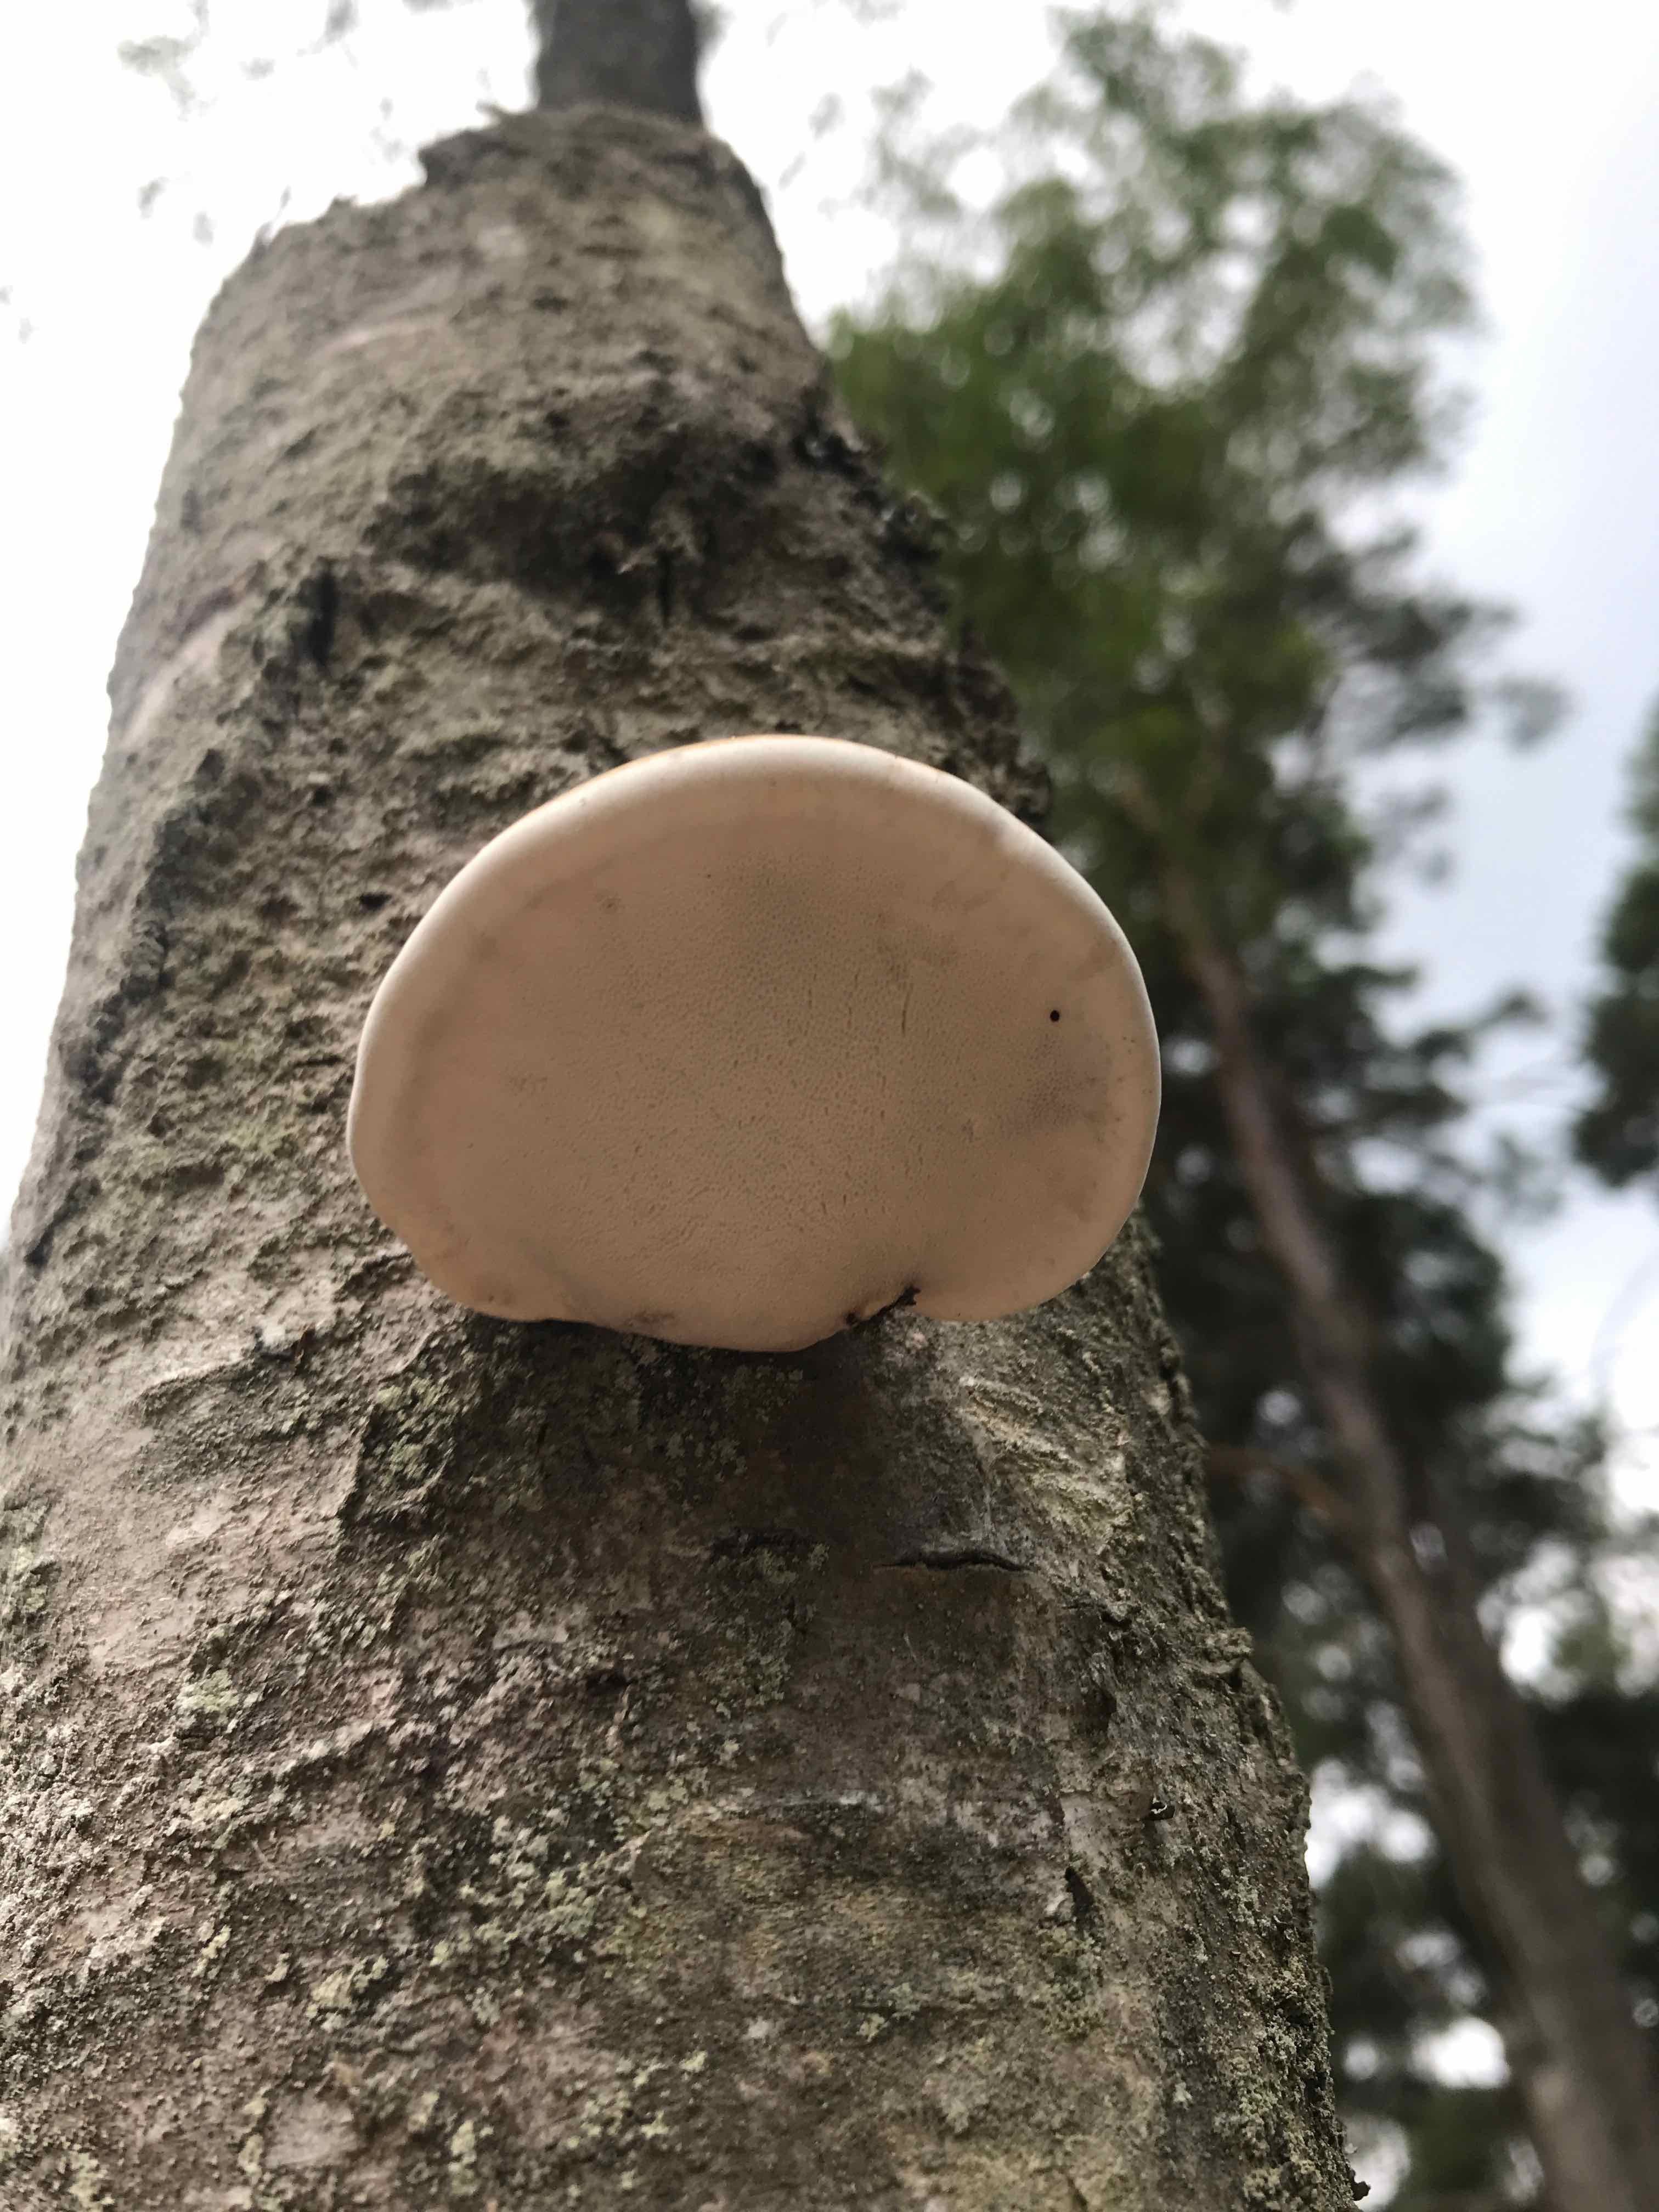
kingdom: Fungi
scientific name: Fungi
